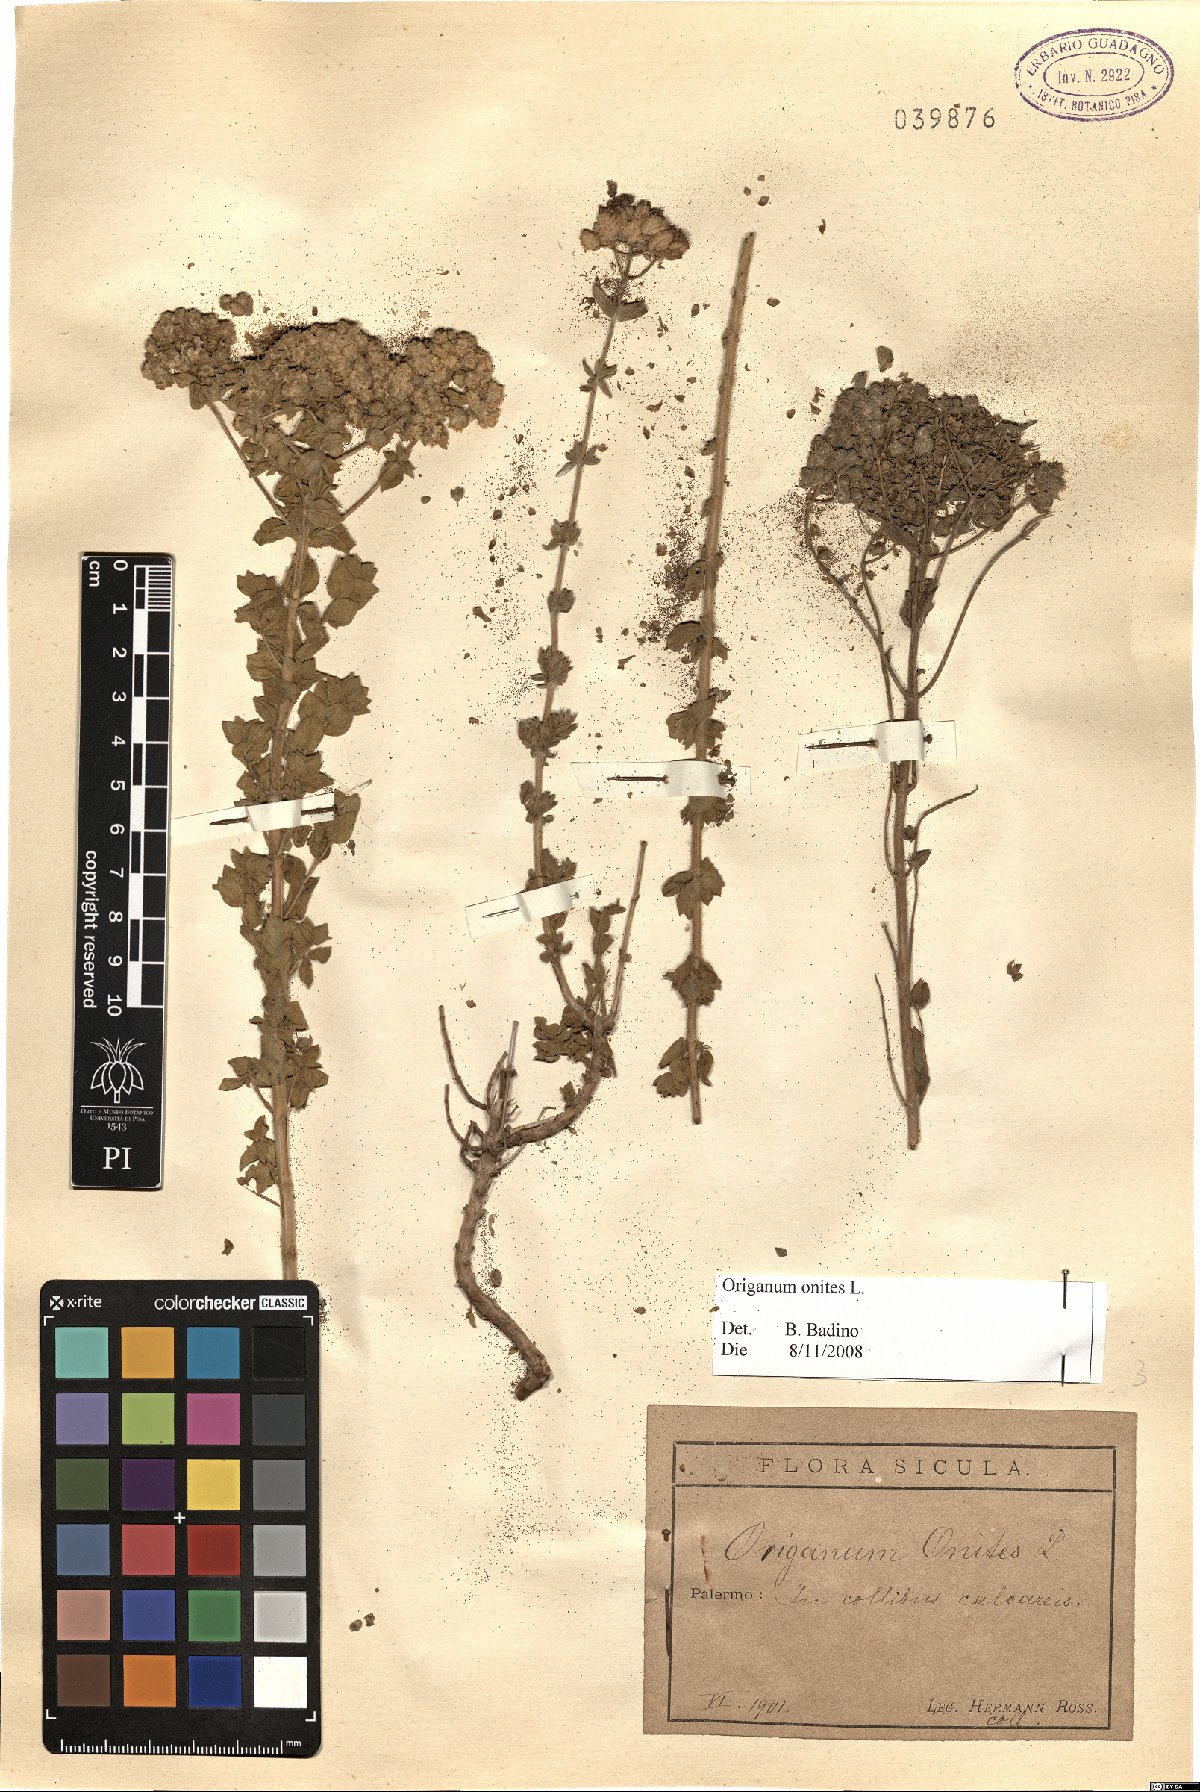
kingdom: Plantae
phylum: Tracheophyta
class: Magnoliopsida
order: Lamiales
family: Lamiaceae
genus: Origanum
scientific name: Origanum onites
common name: Turkish oregano
